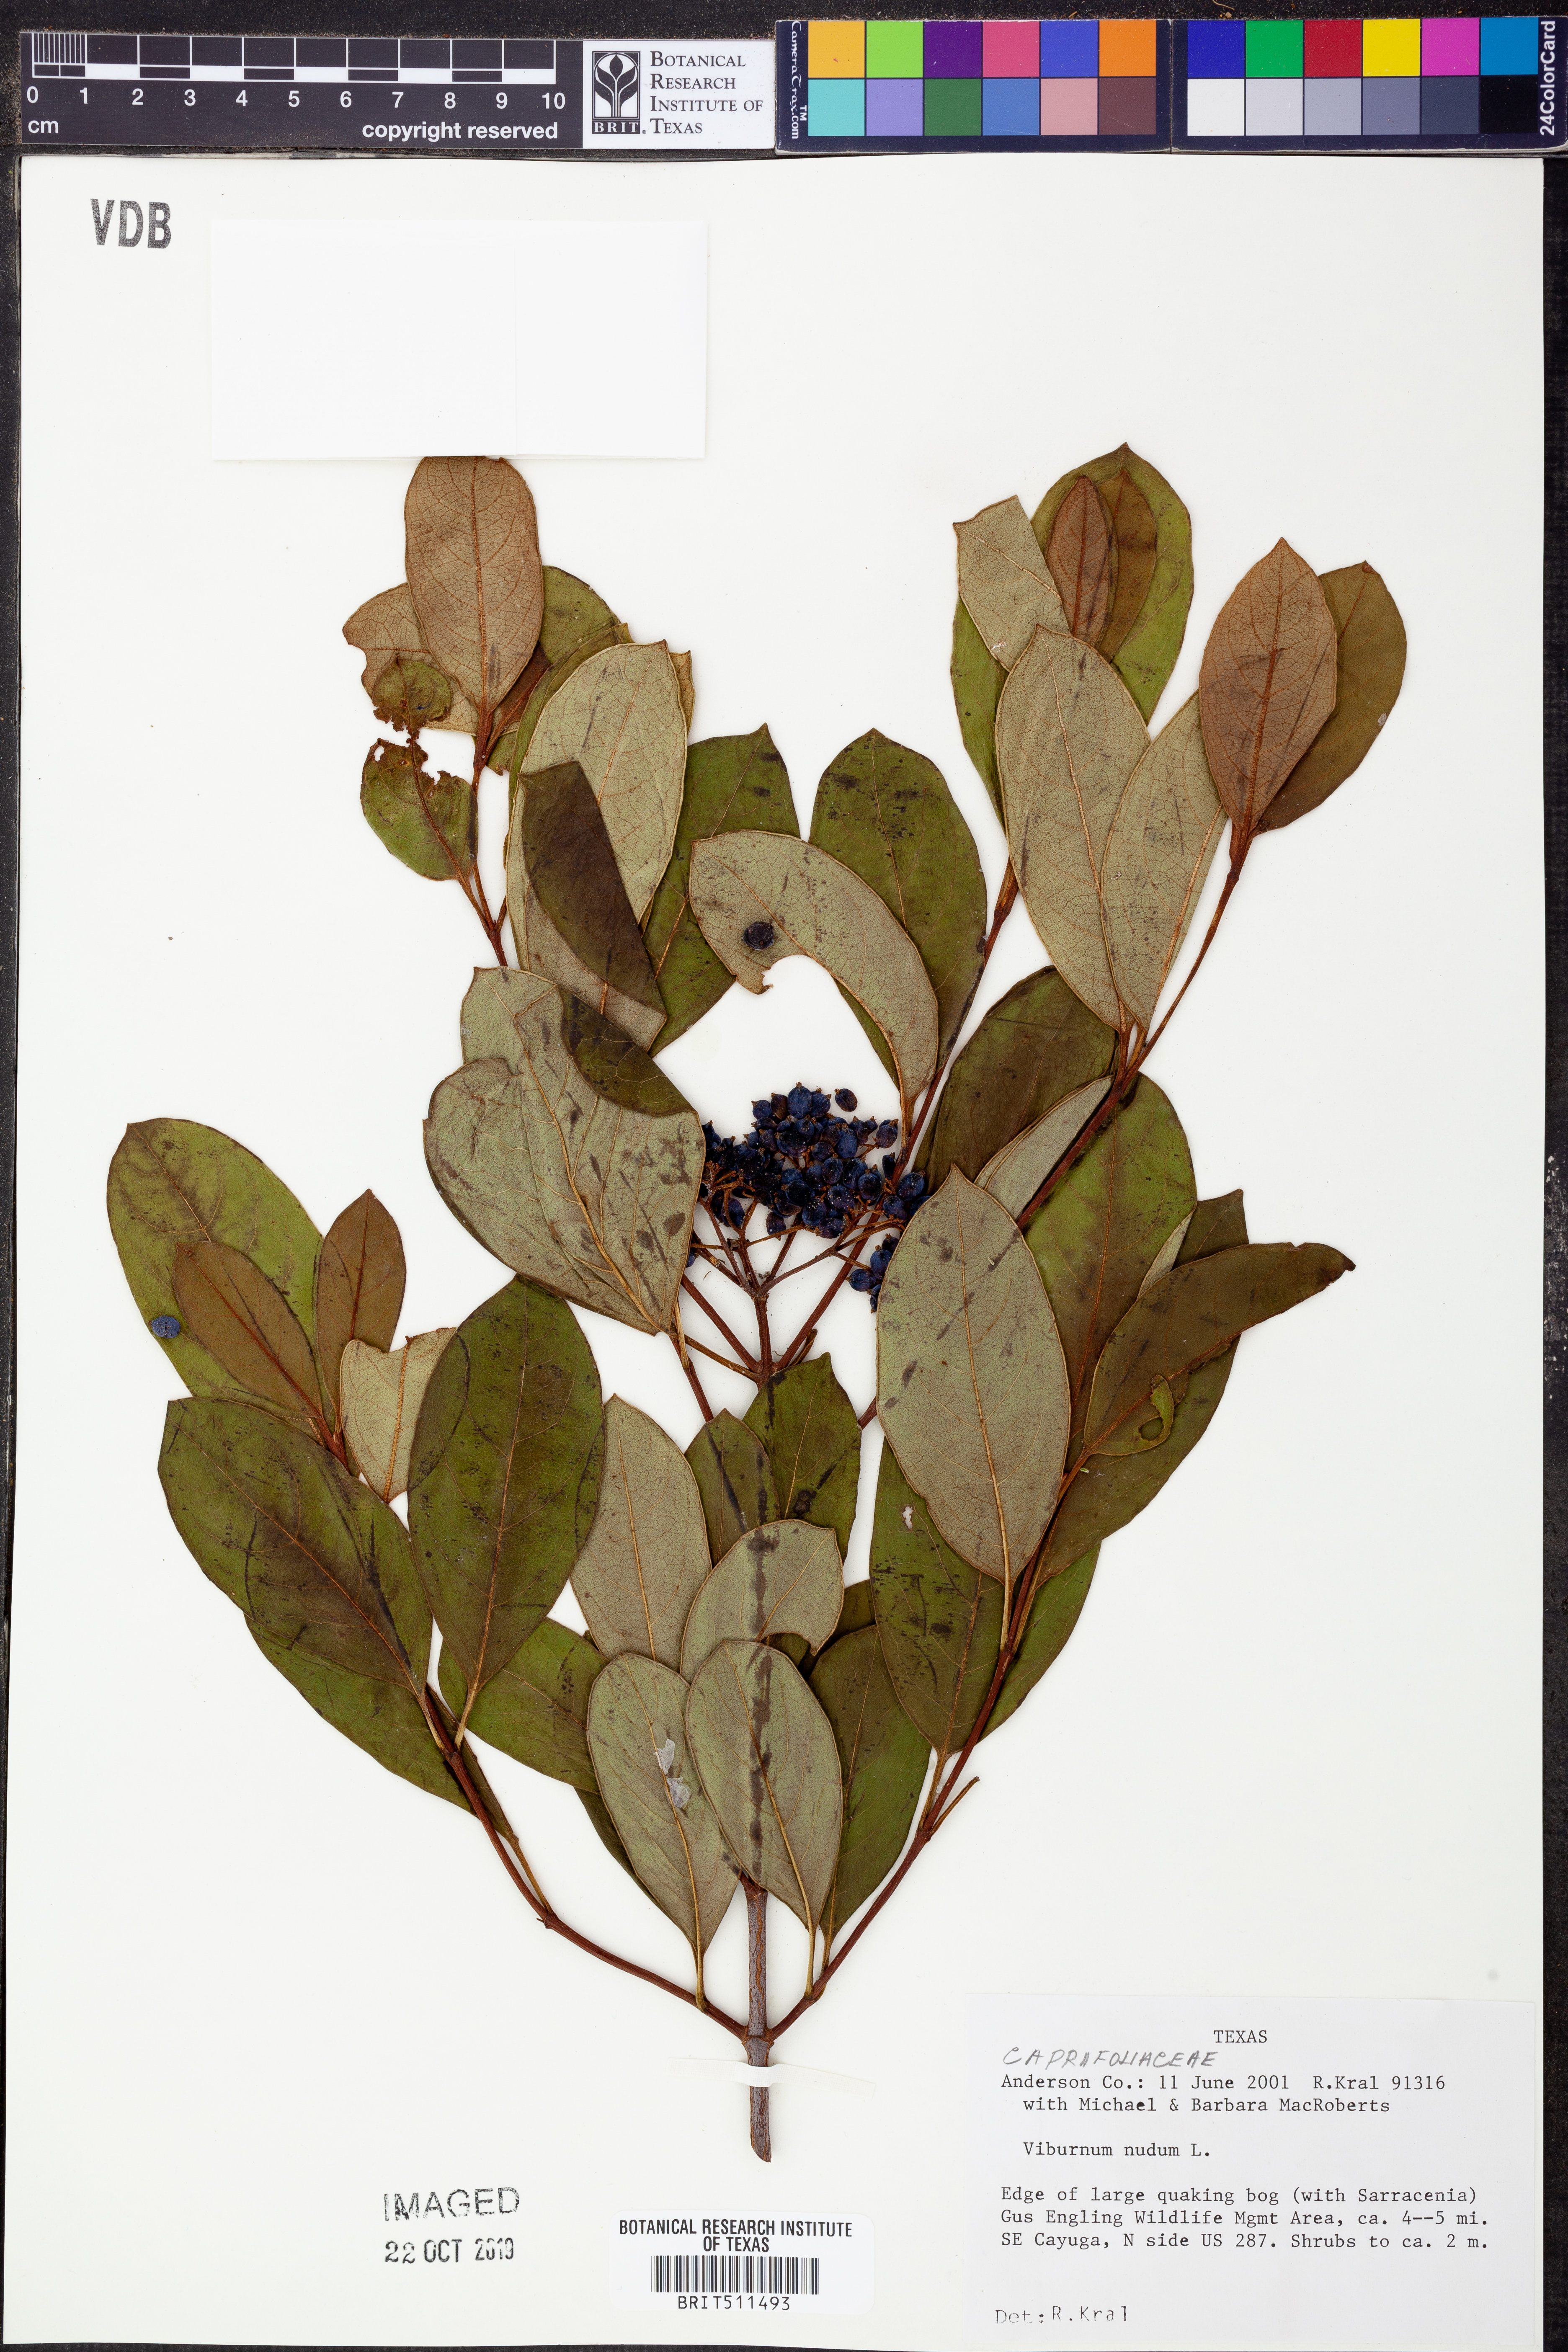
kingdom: Plantae
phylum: Tracheophyta
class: Magnoliopsida
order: Dipsacales
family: Viburnaceae
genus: Viburnum
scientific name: Viburnum nudum
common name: Possum haw
